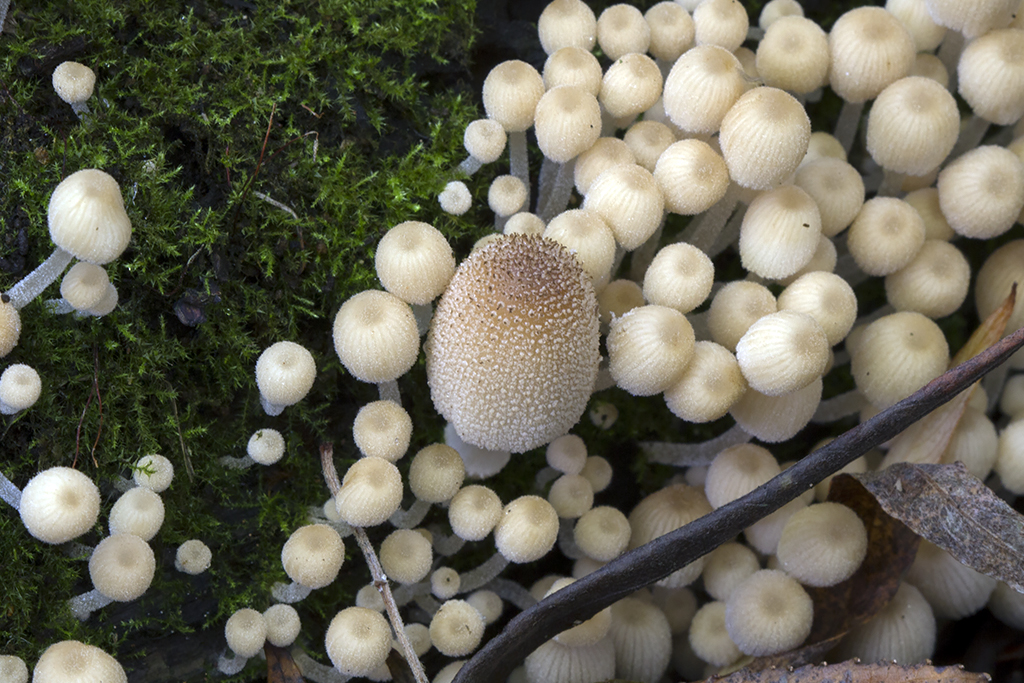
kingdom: Fungi
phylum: Basidiomycota
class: Agaricomycetes
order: Agaricales
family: Psathyrellaceae
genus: Coprinellus
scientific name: Coprinellus micaceus
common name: glimmer-blækhat
